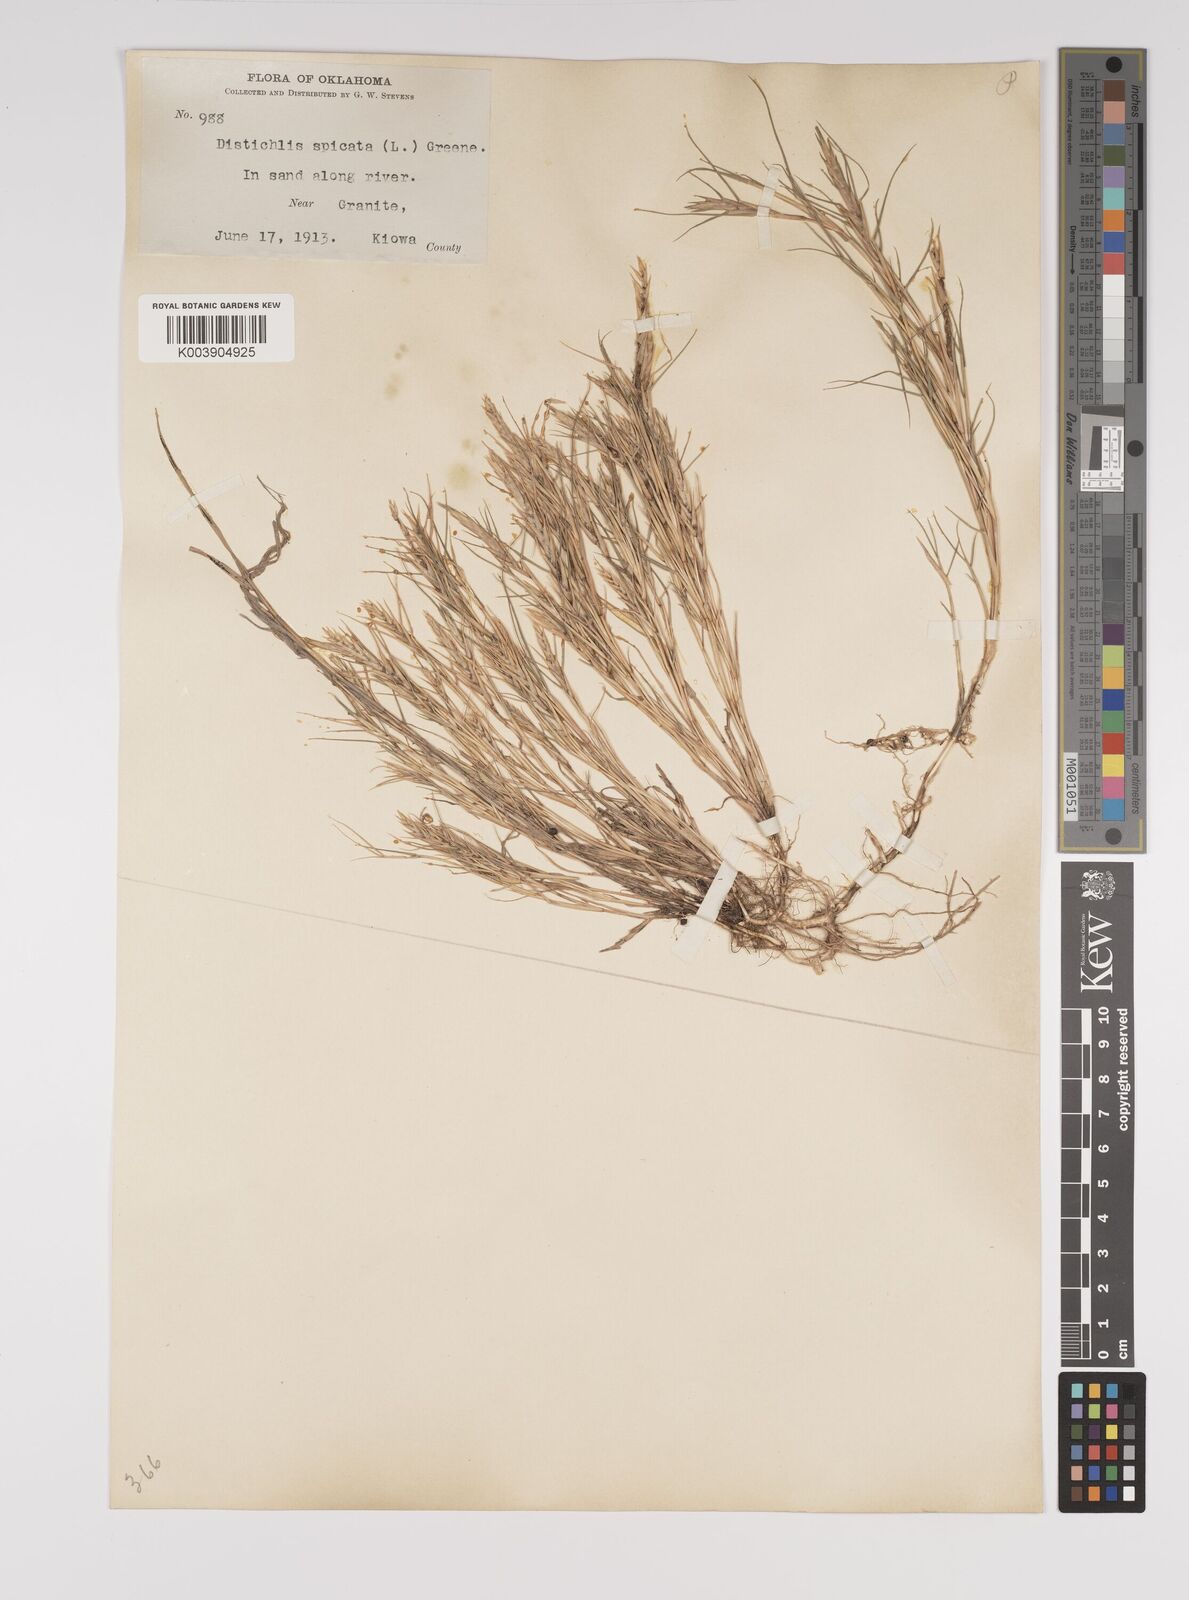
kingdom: Plantae
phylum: Tracheophyta
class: Liliopsida
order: Poales
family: Poaceae
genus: Distichlis
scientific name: Distichlis spicata
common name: Saltgrass
